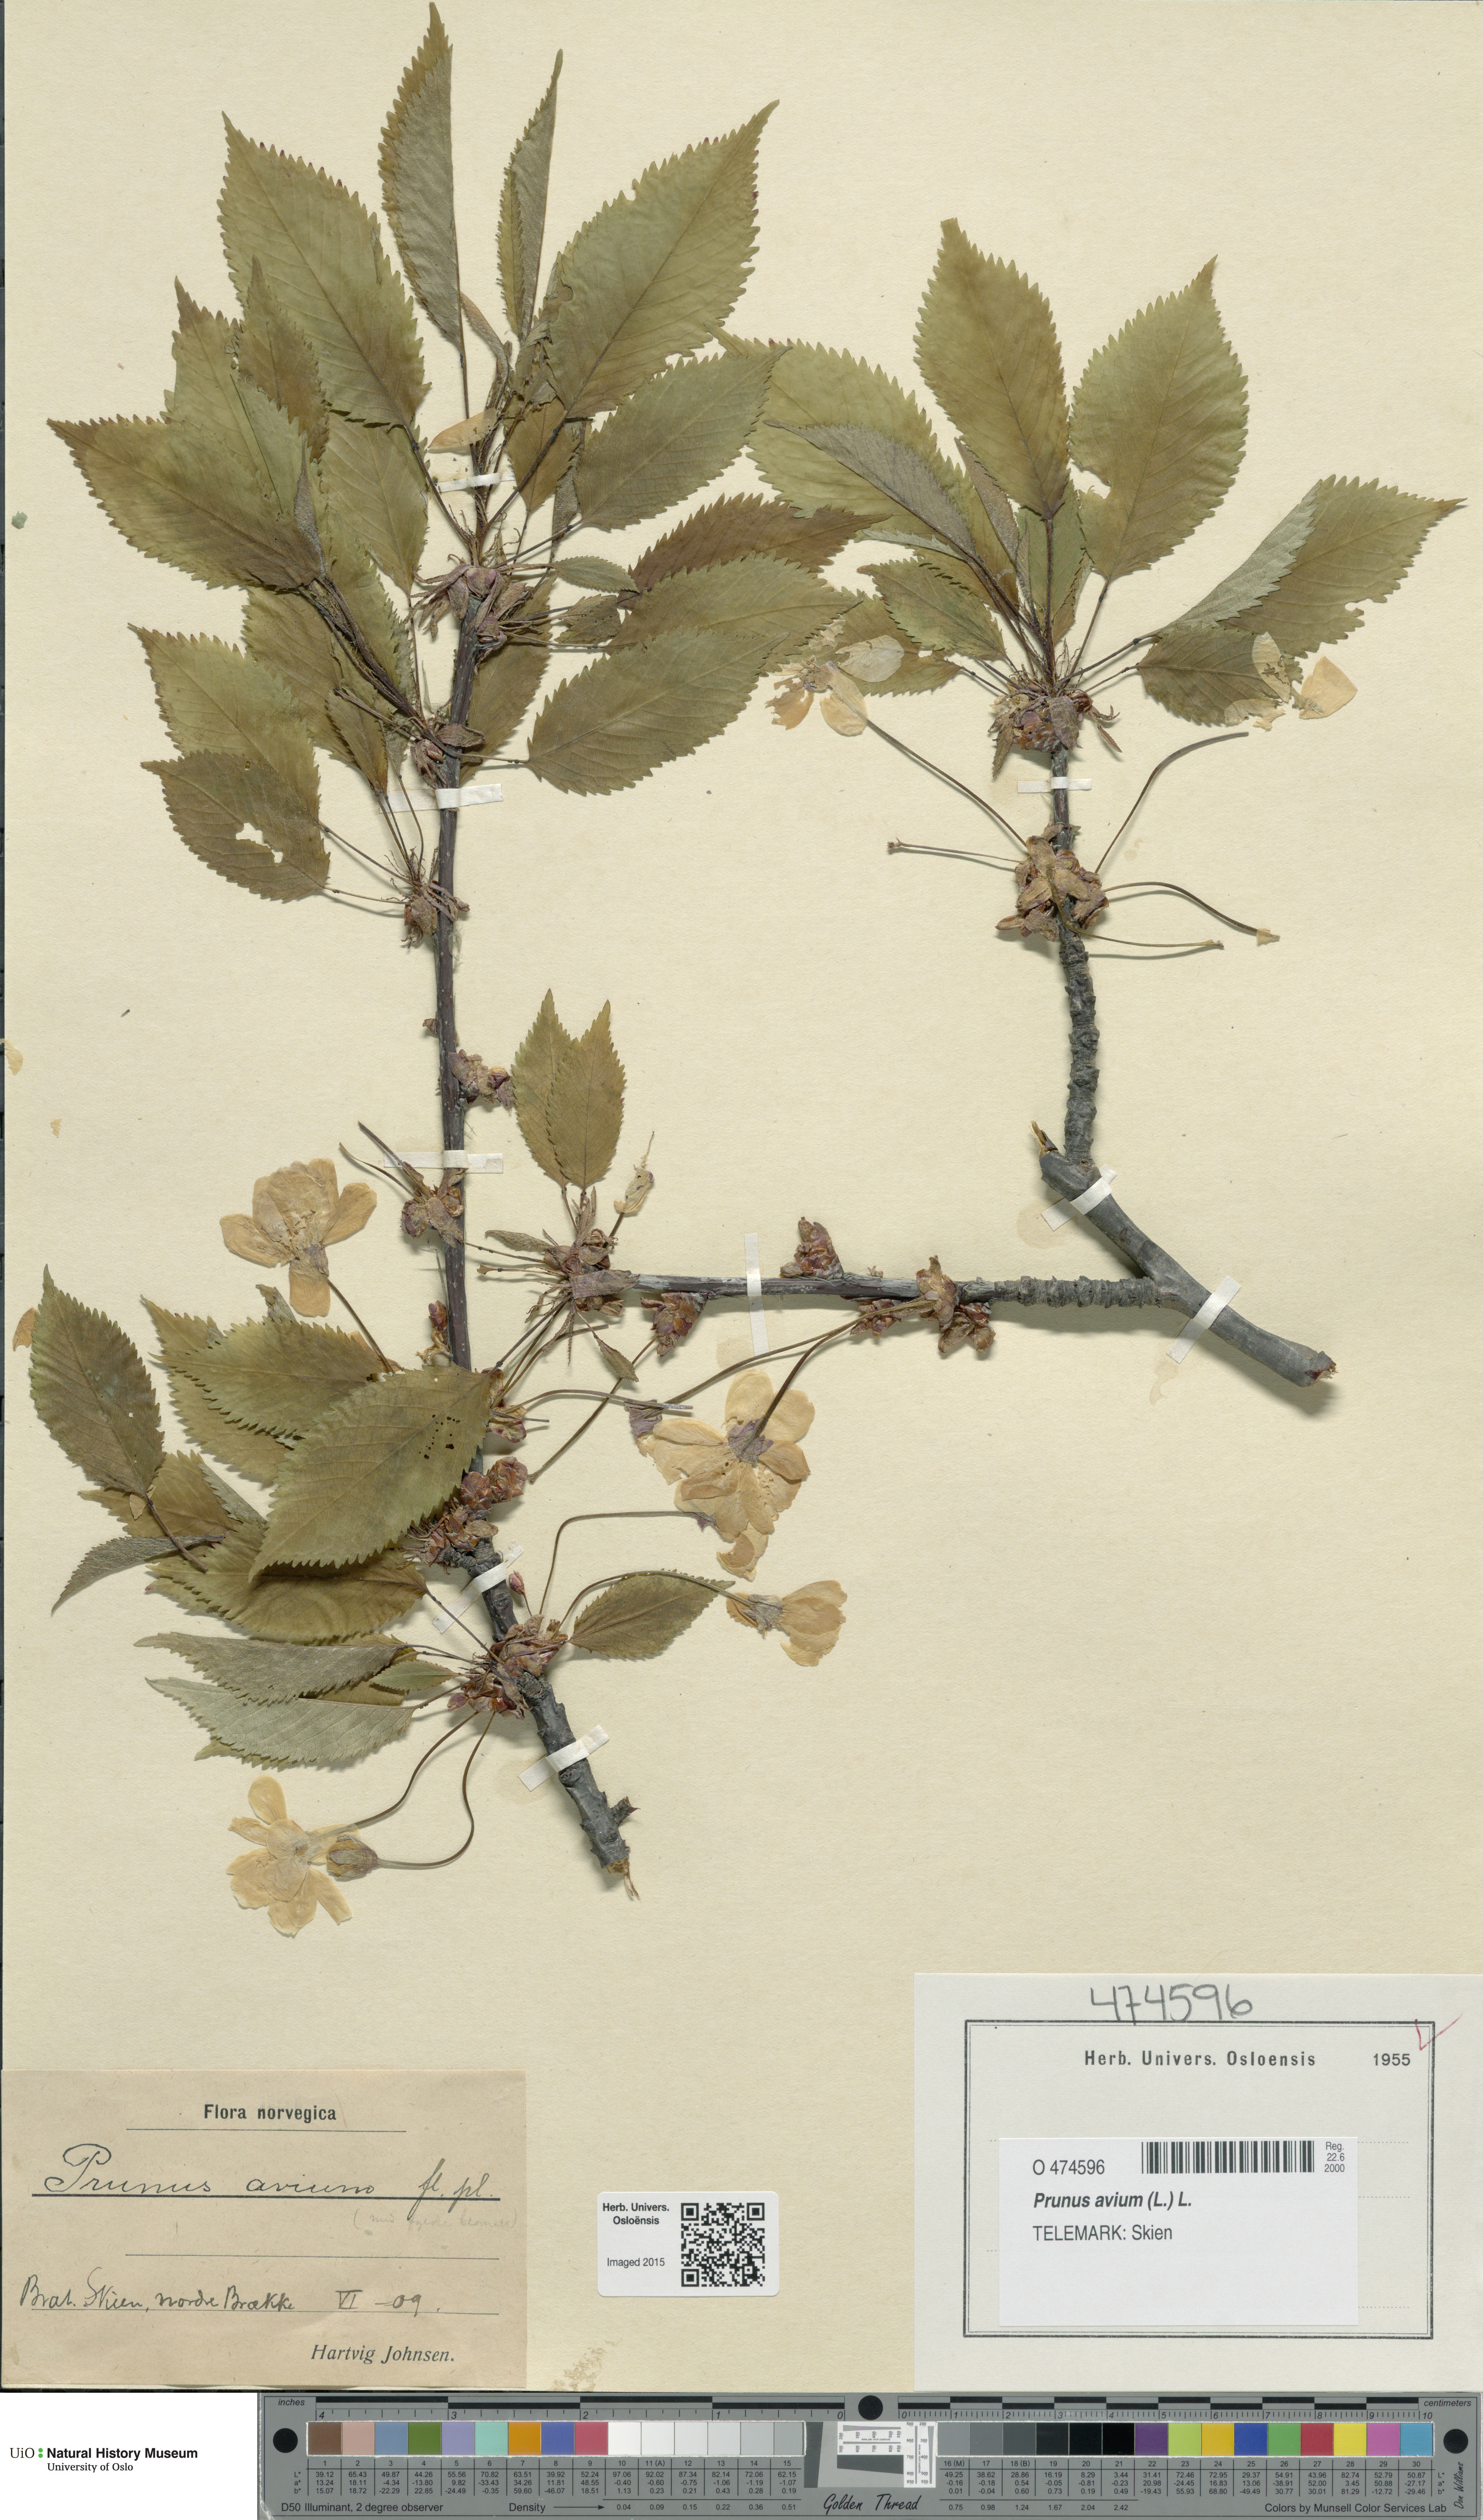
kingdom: Plantae
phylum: Tracheophyta
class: Magnoliopsida
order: Rosales
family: Rosaceae
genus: Prunus
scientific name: Prunus avium
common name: Sweet cherry
